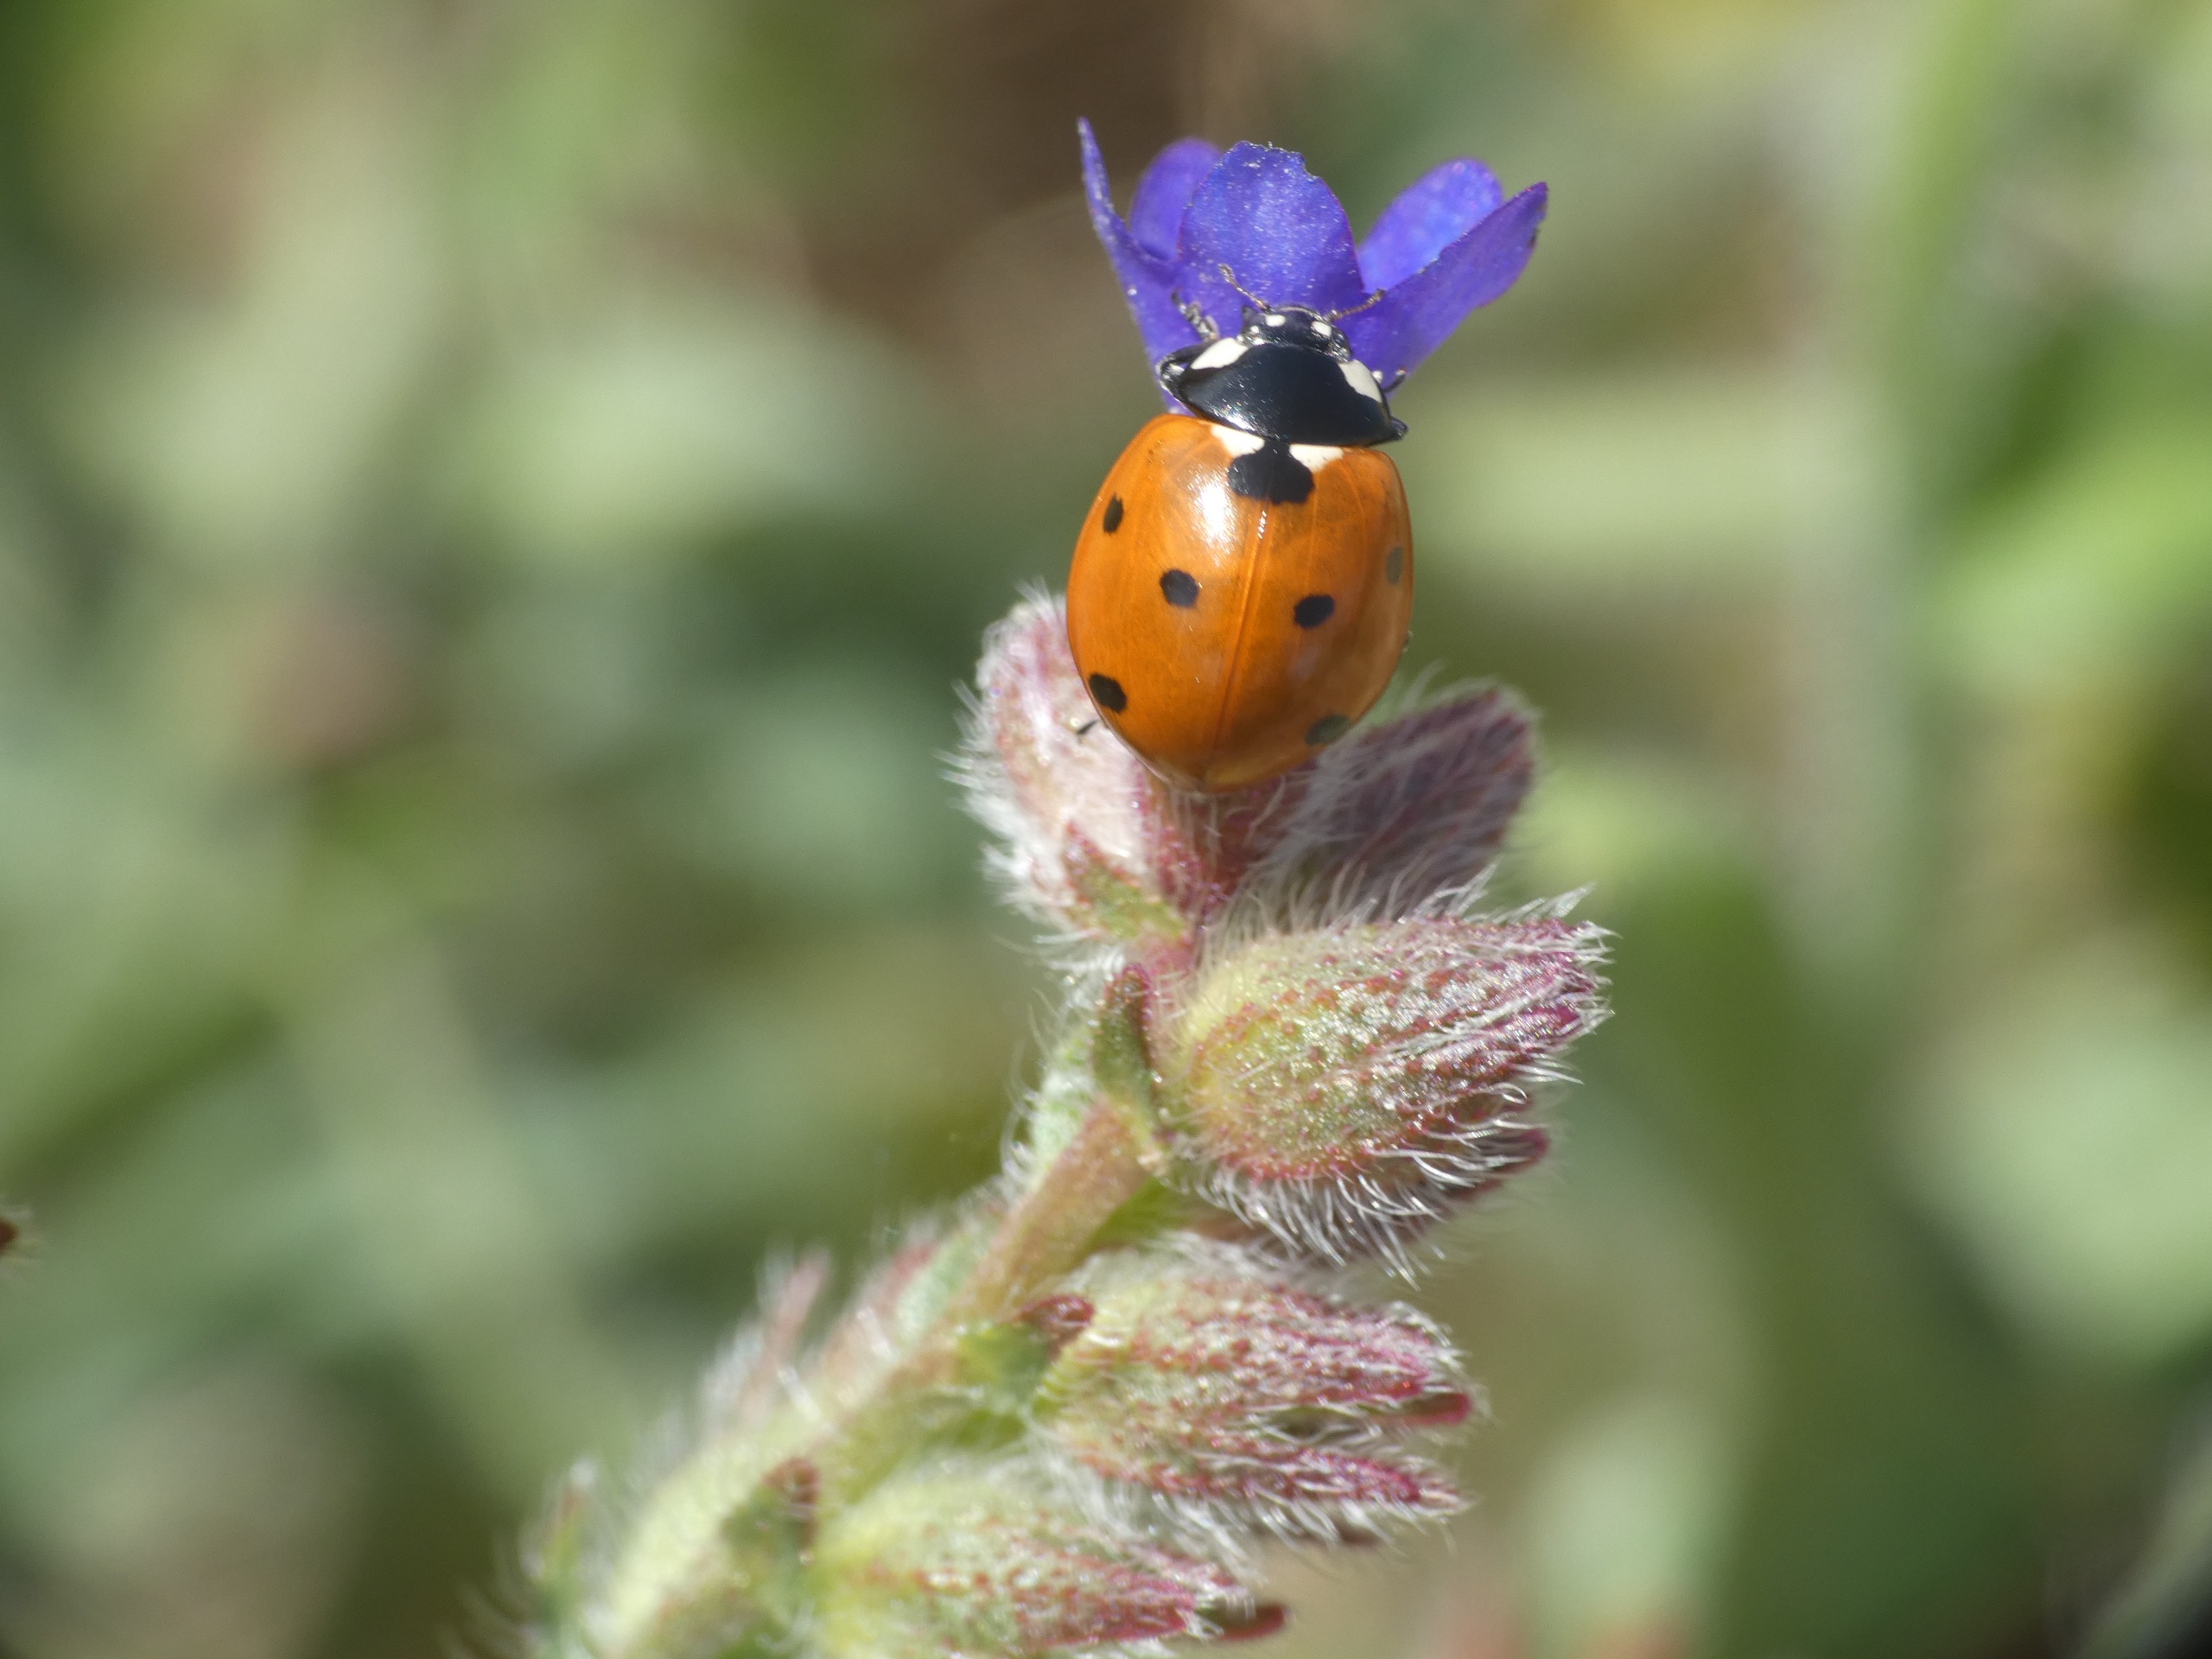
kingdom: Animalia
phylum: Arthropoda
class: Insecta
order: Coleoptera
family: Coccinellidae
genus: Coccinella
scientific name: Coccinella septempunctata
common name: Syvplettet mariehøne
